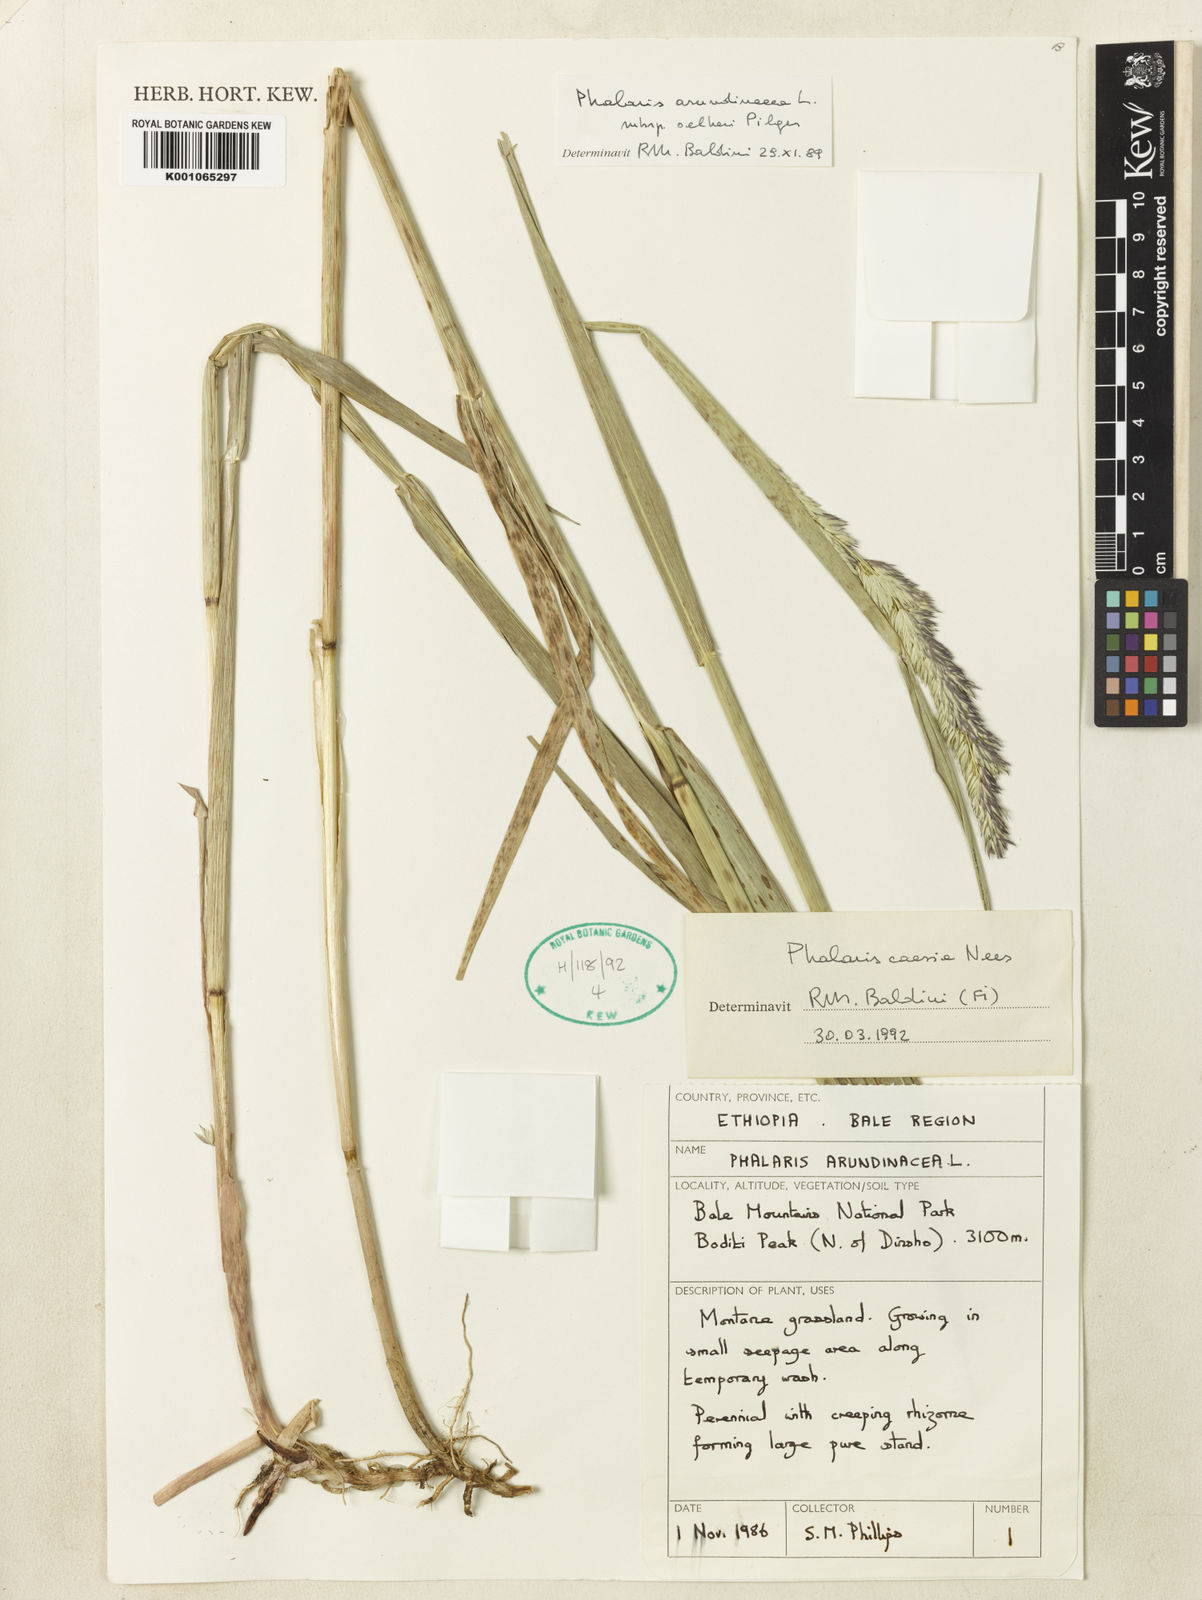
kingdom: Plantae
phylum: Tracheophyta
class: Liliopsida
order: Poales
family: Poaceae
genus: Phalaris
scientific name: Phalaris arundinacea
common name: Reed canary-grass
